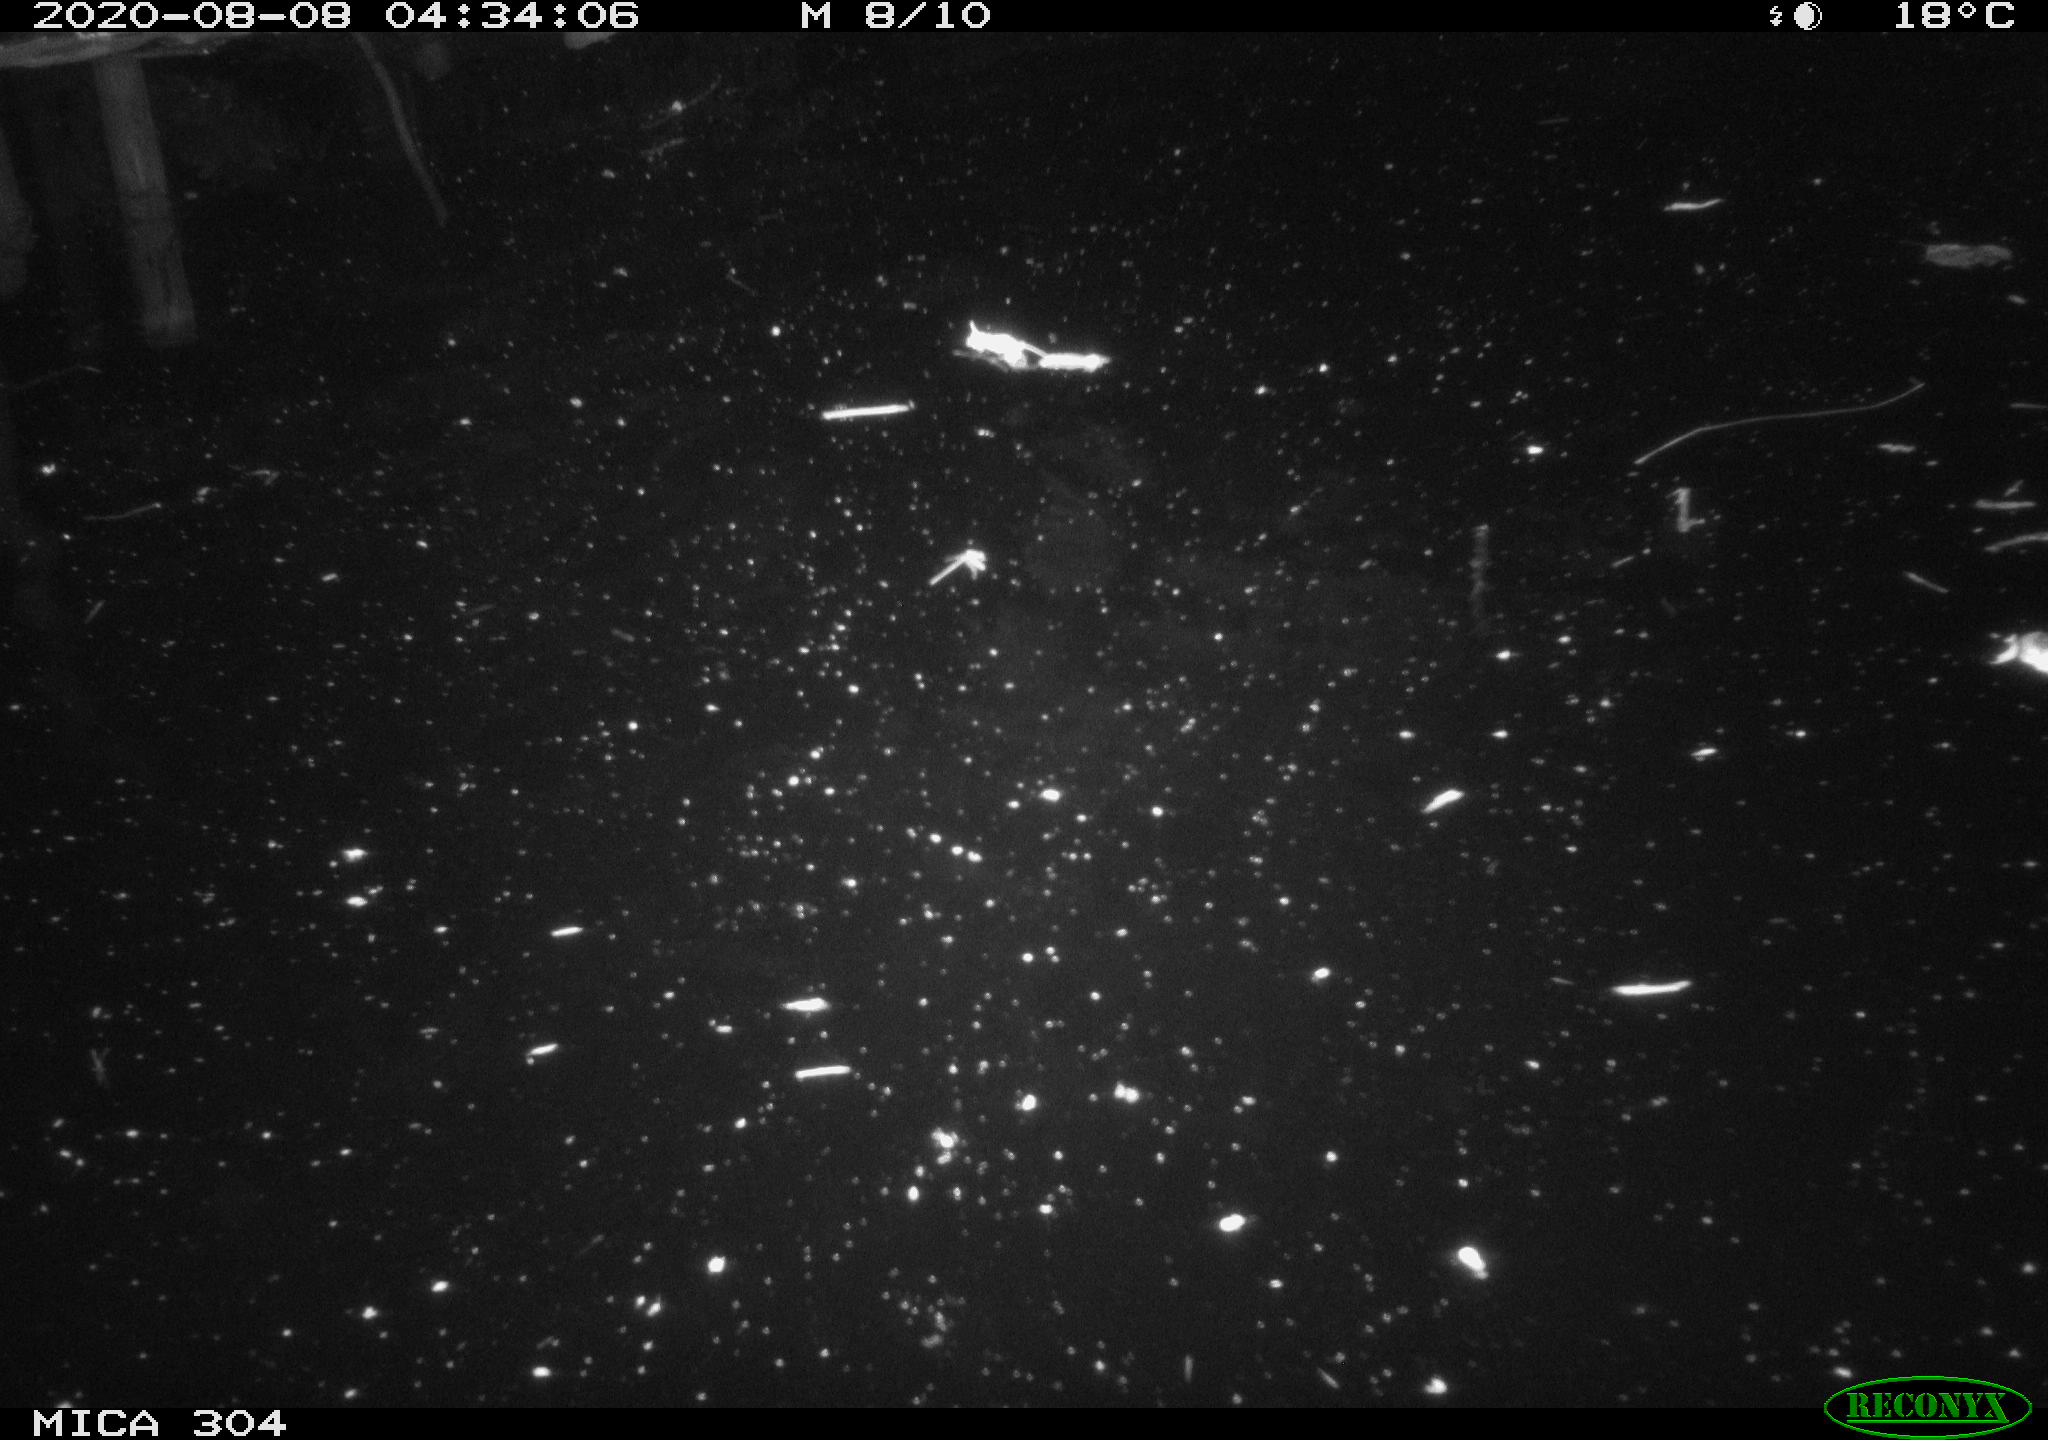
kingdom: Animalia
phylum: Chordata
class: Mammalia
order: Rodentia
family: Cricetidae
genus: Ondatra
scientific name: Ondatra zibethicus
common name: Muskrat
